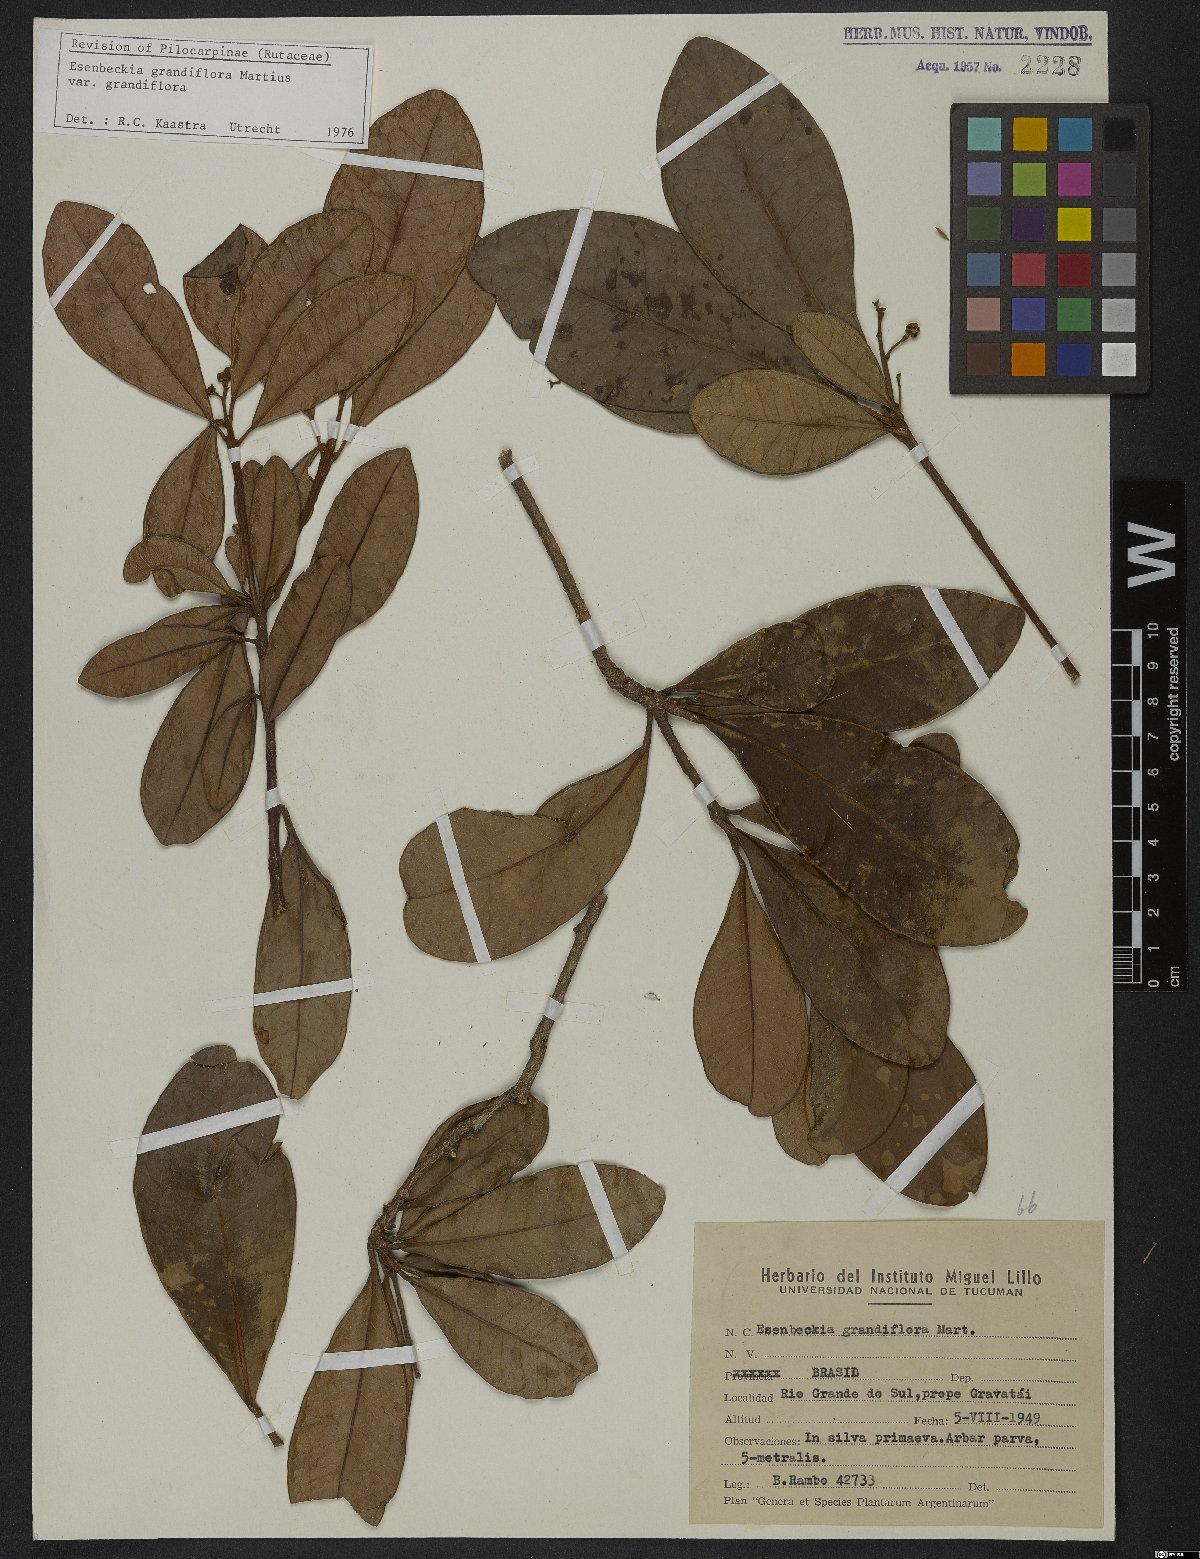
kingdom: Plantae
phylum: Tracheophyta
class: Magnoliopsida
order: Sapindales
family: Rutaceae
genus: Esenbeckia
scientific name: Esenbeckia grandiflora
